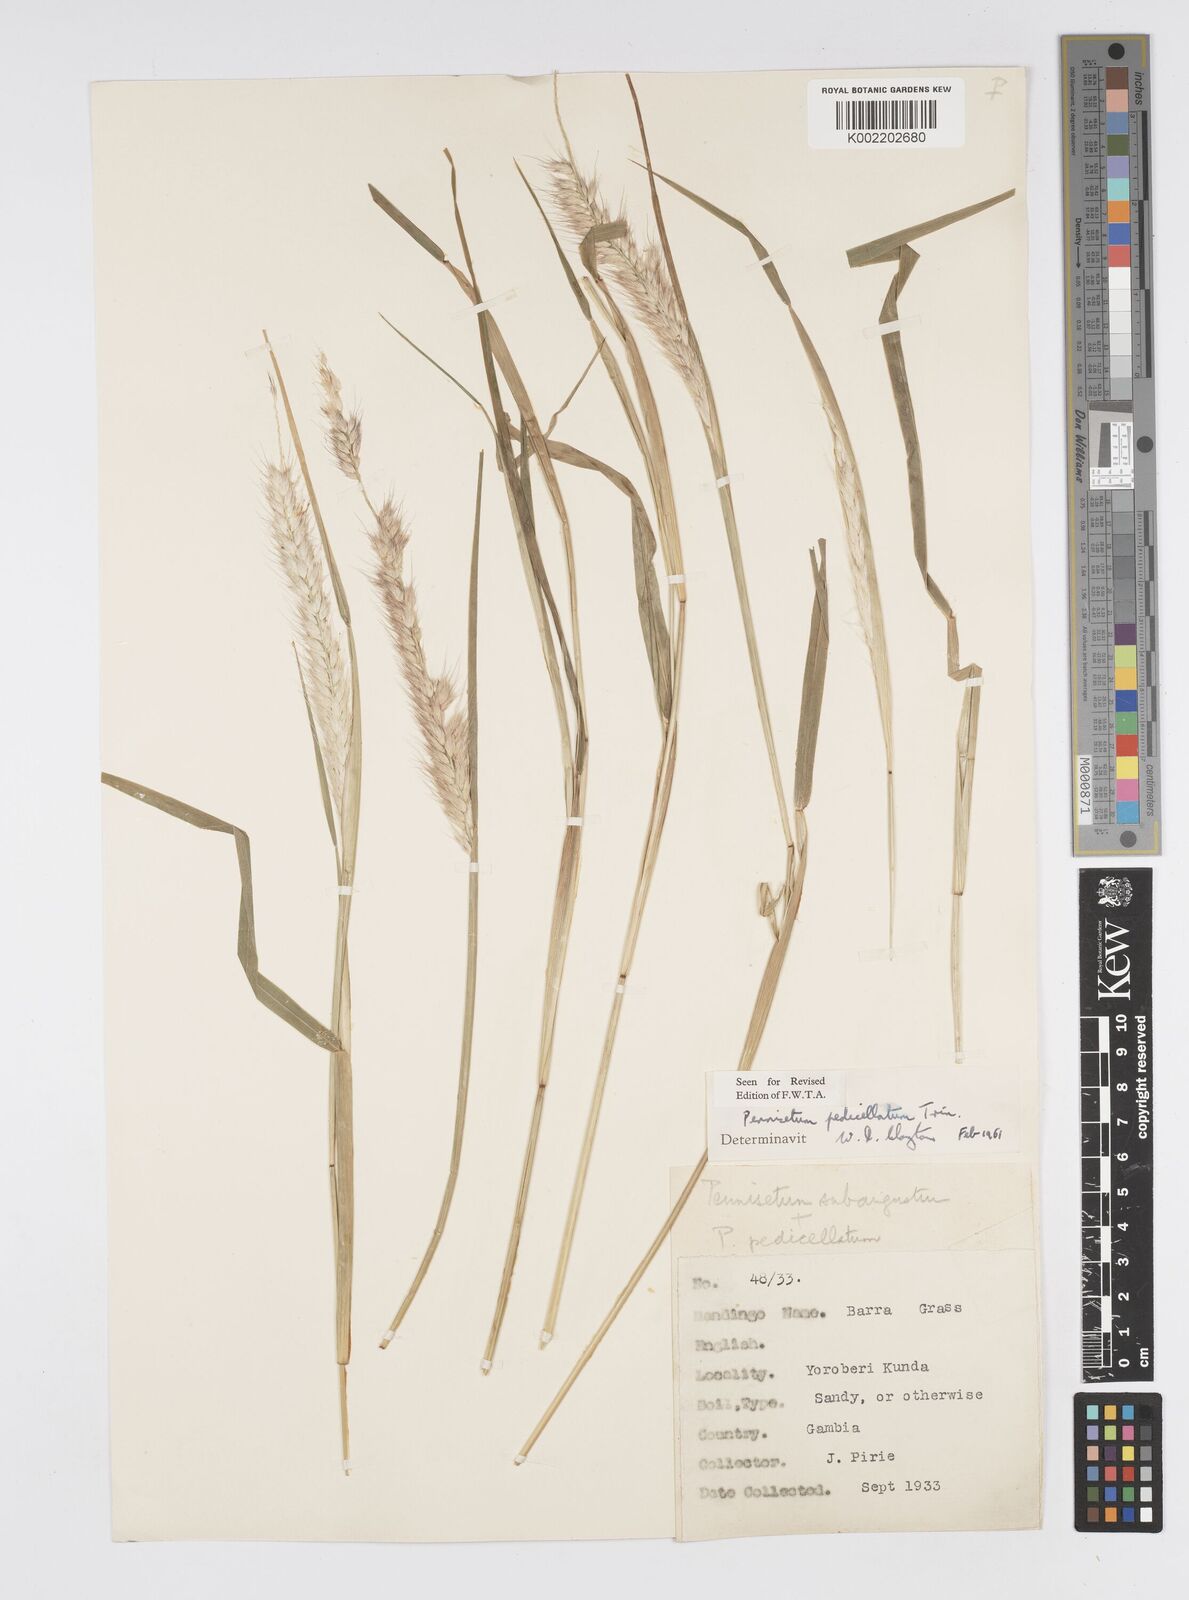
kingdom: Plantae
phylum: Tracheophyta
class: Liliopsida
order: Poales
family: Poaceae
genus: Cenchrus
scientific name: Cenchrus pedicellatus
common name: Hairy fountain grass
